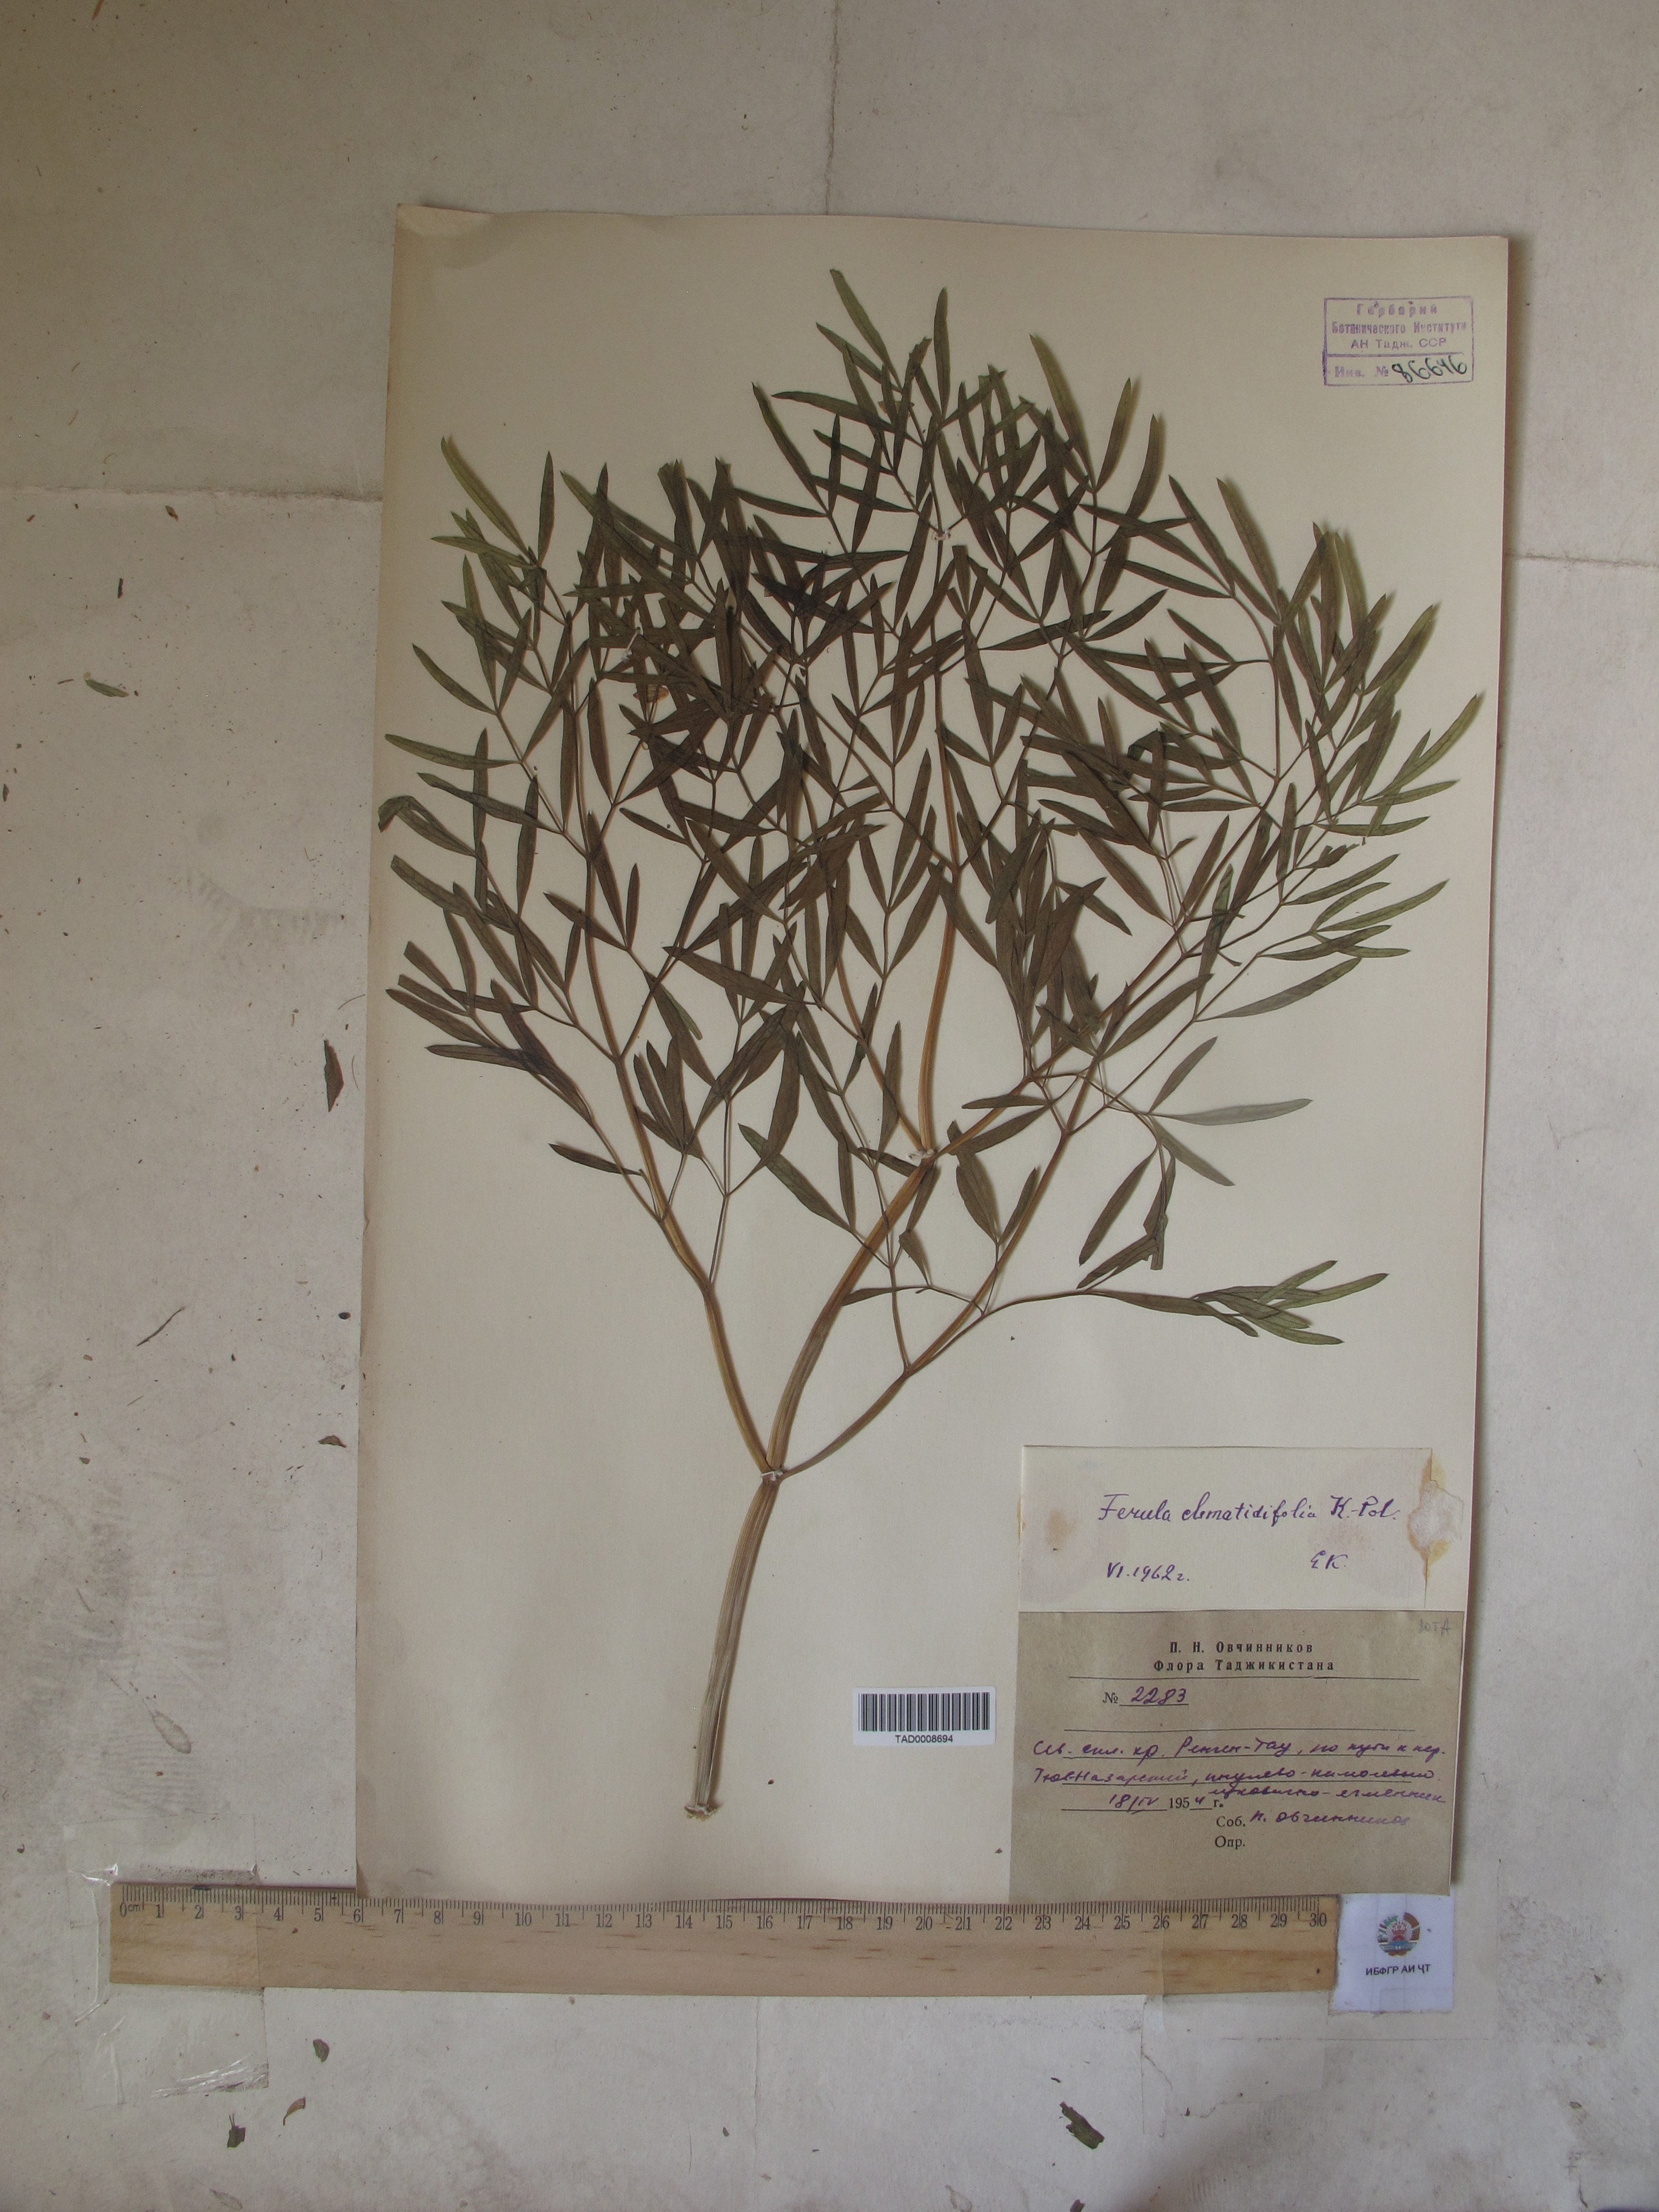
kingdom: Plantae
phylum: Tracheophyta
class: Magnoliopsida
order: Apiales
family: Apiaceae
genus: Ferula
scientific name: Ferula clematidifolia
